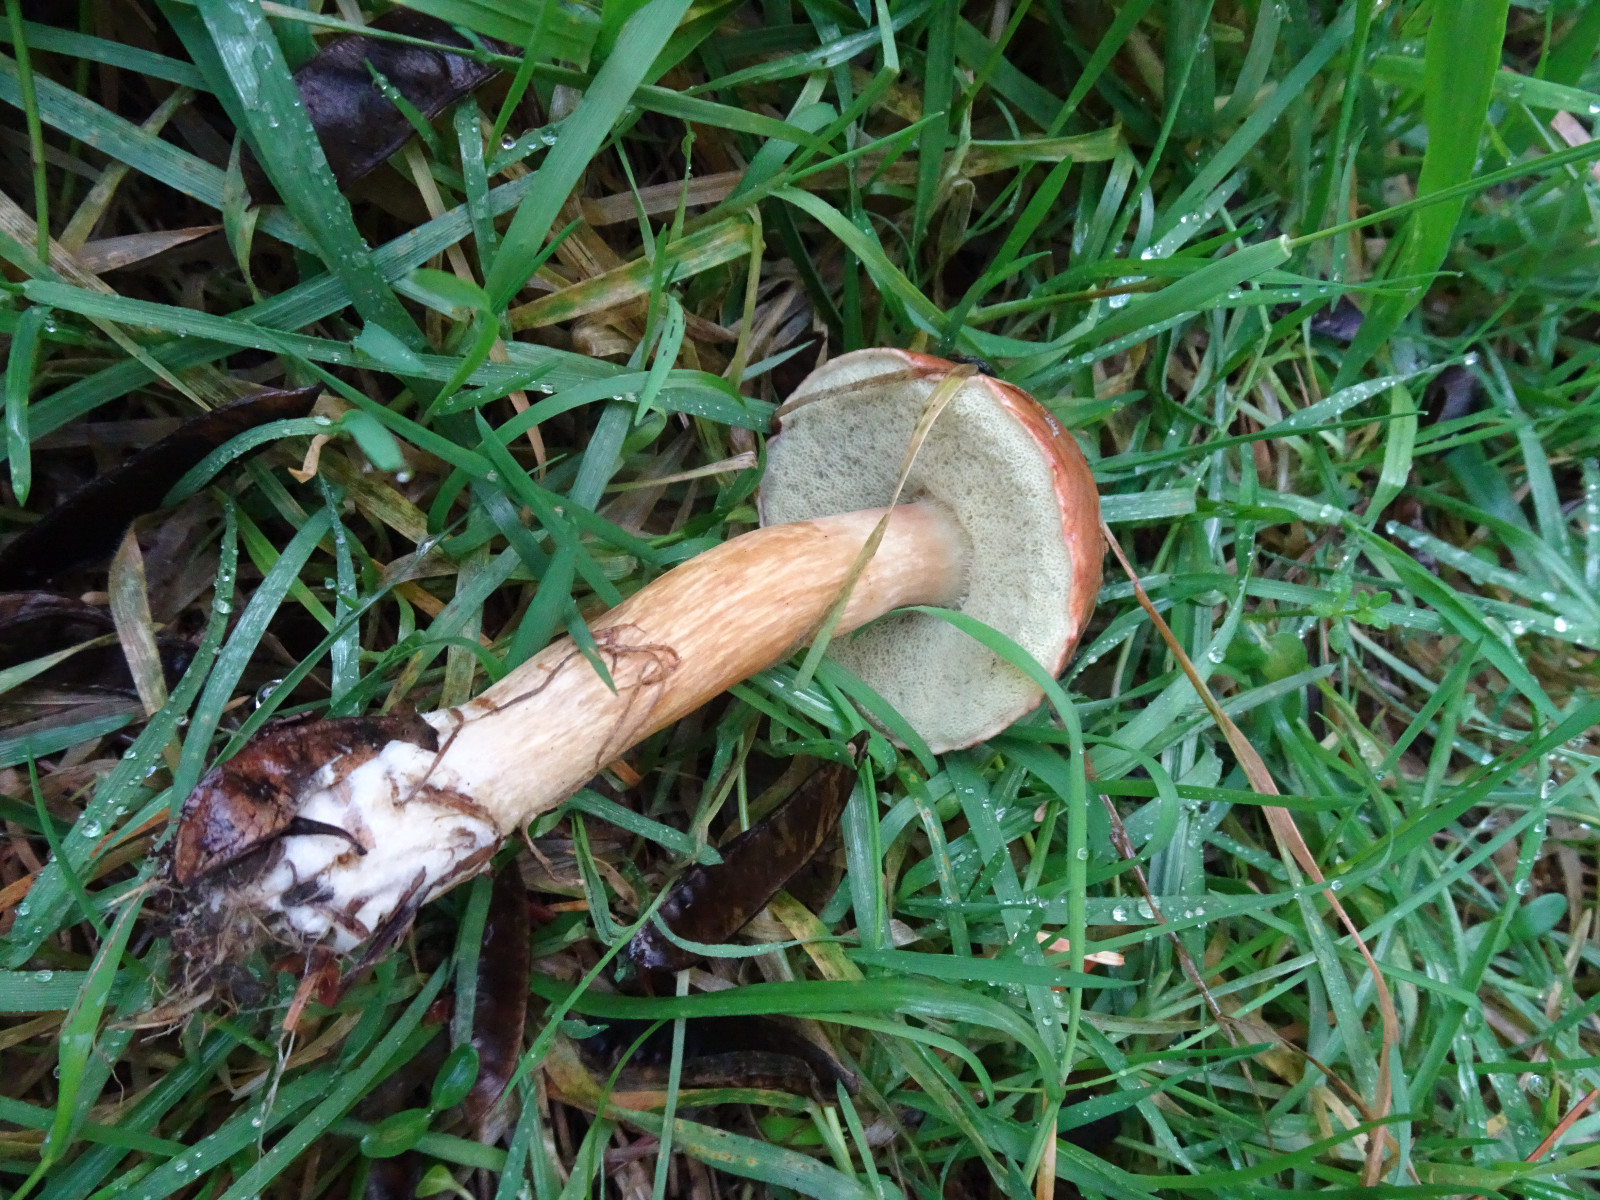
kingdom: Fungi
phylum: Basidiomycota
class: Agaricomycetes
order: Boletales
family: Boletaceae
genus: Imleria
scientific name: Imleria badia
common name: brunstokket rørhat
